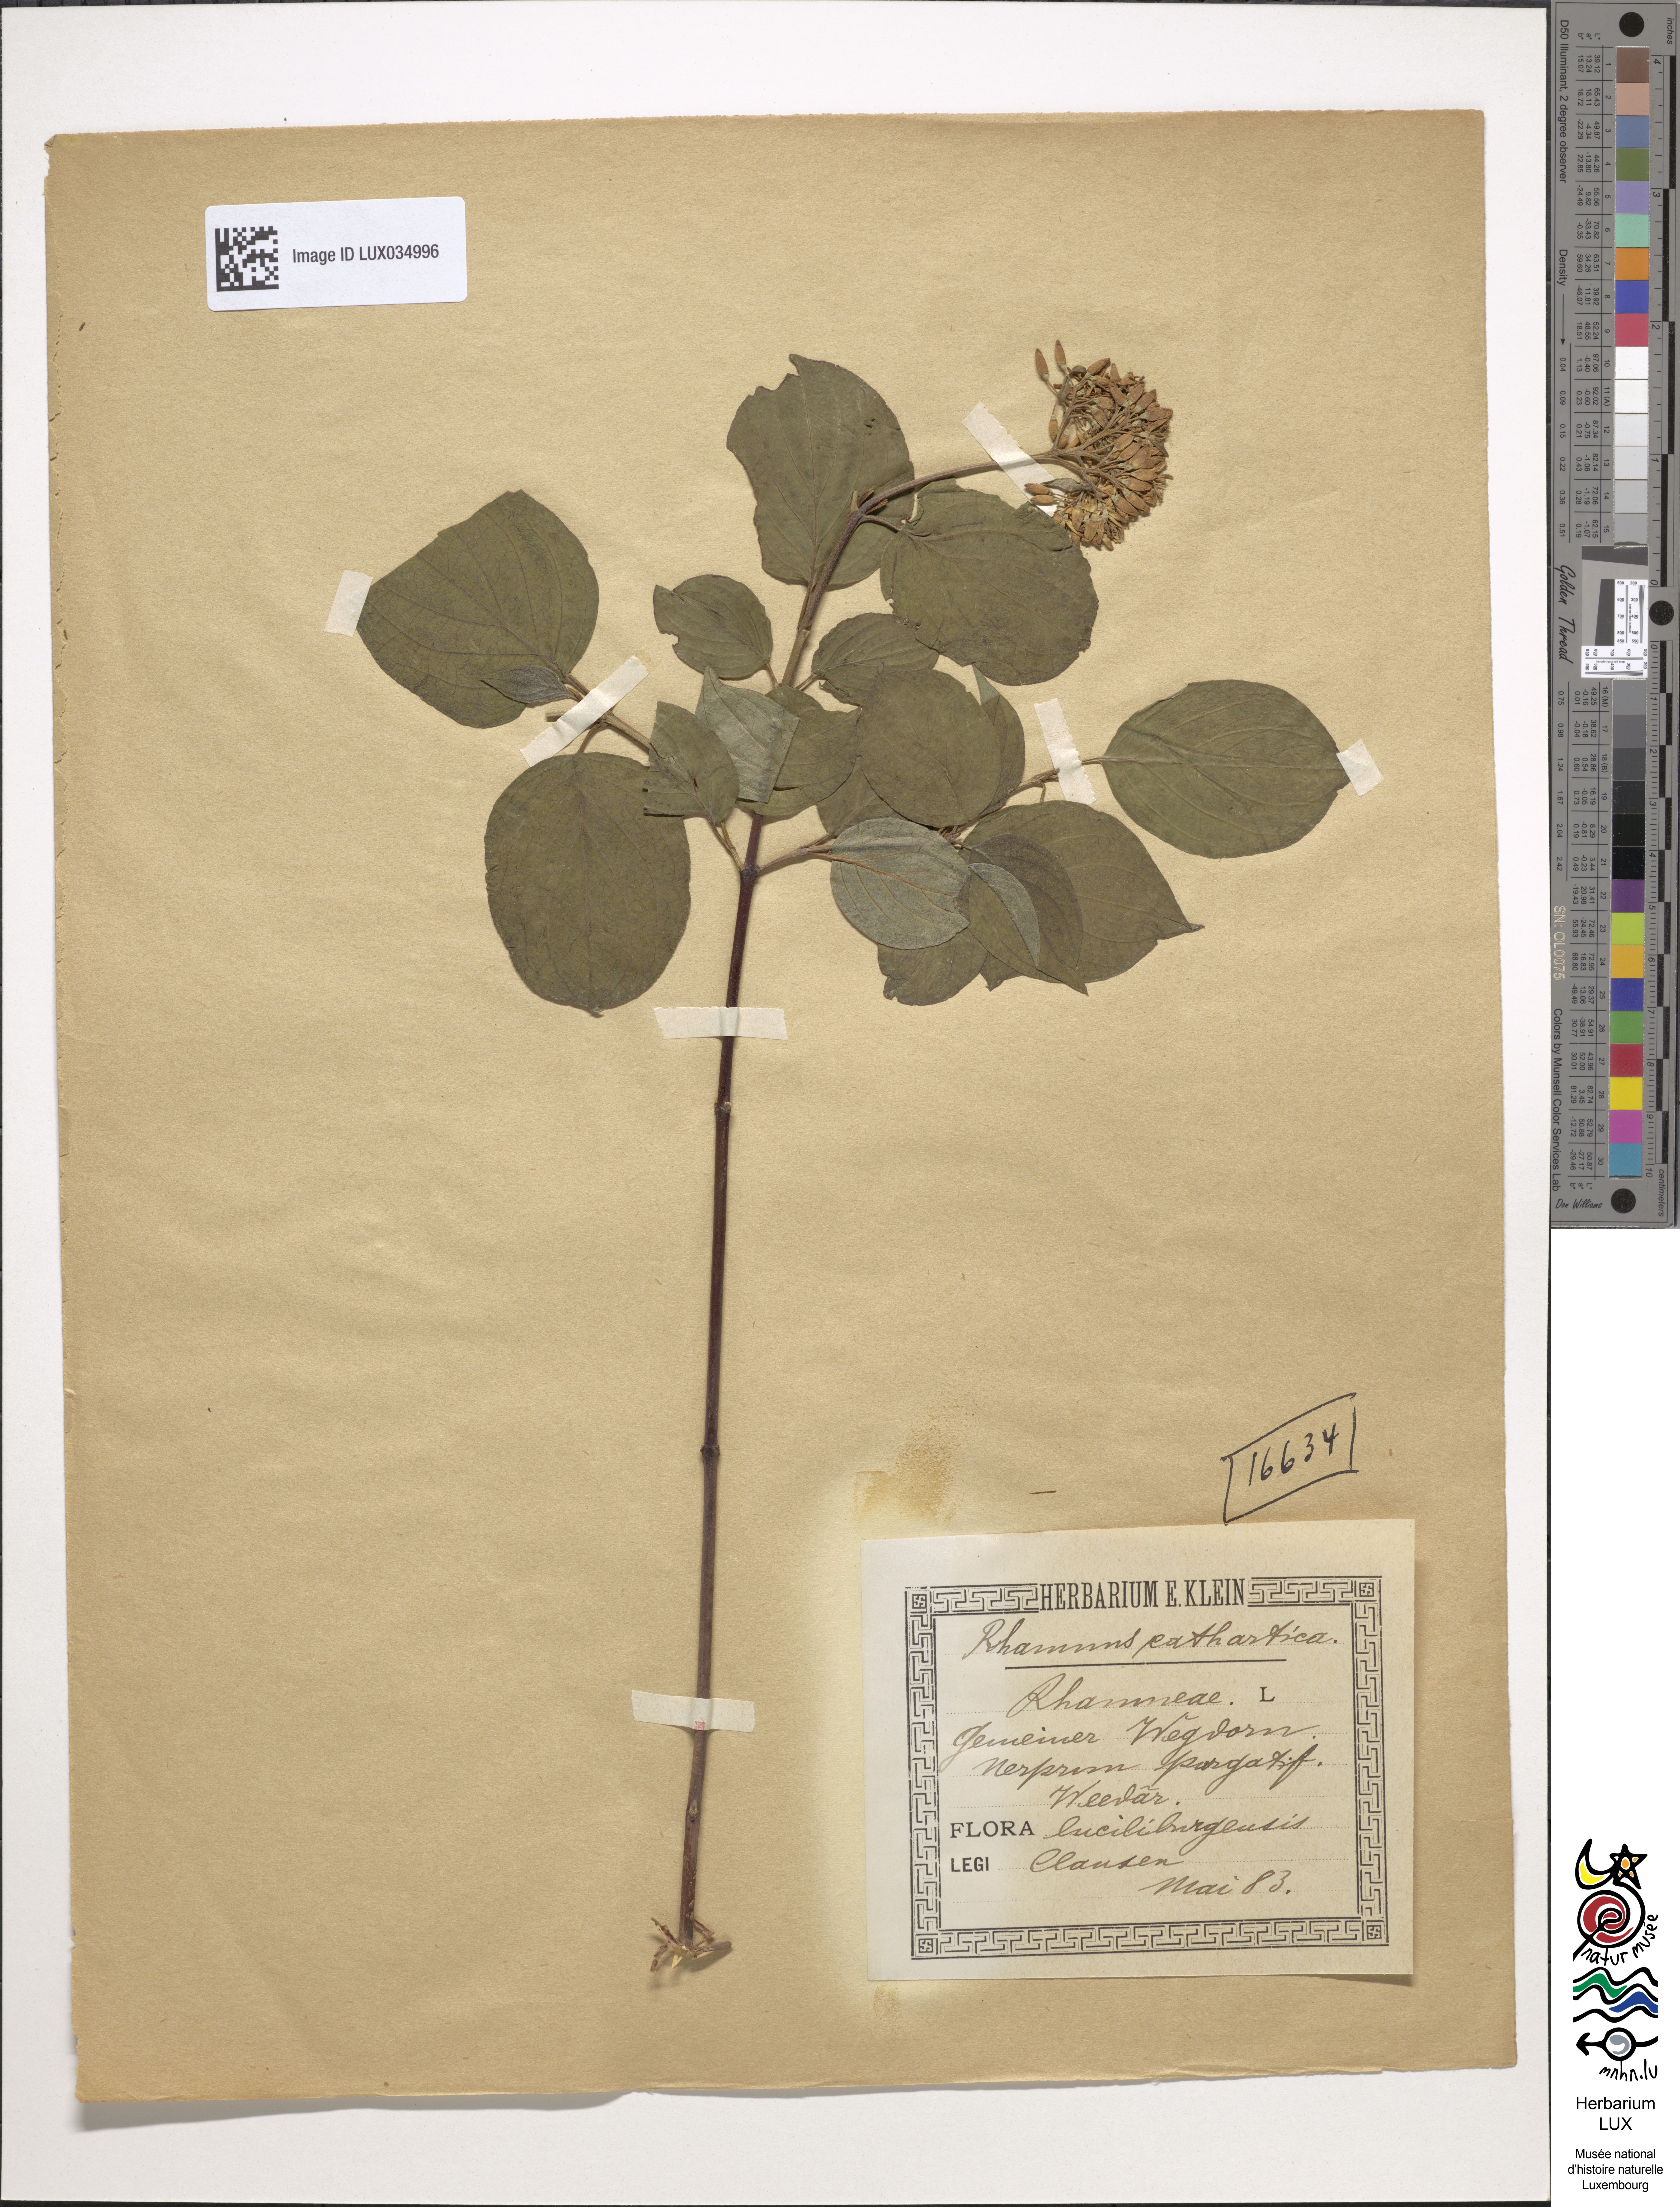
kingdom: Plantae
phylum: Tracheophyta
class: Magnoliopsida
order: Rosales
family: Rhamnaceae
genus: Rhamnus
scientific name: Rhamnus cathartica
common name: Common buckthorn
